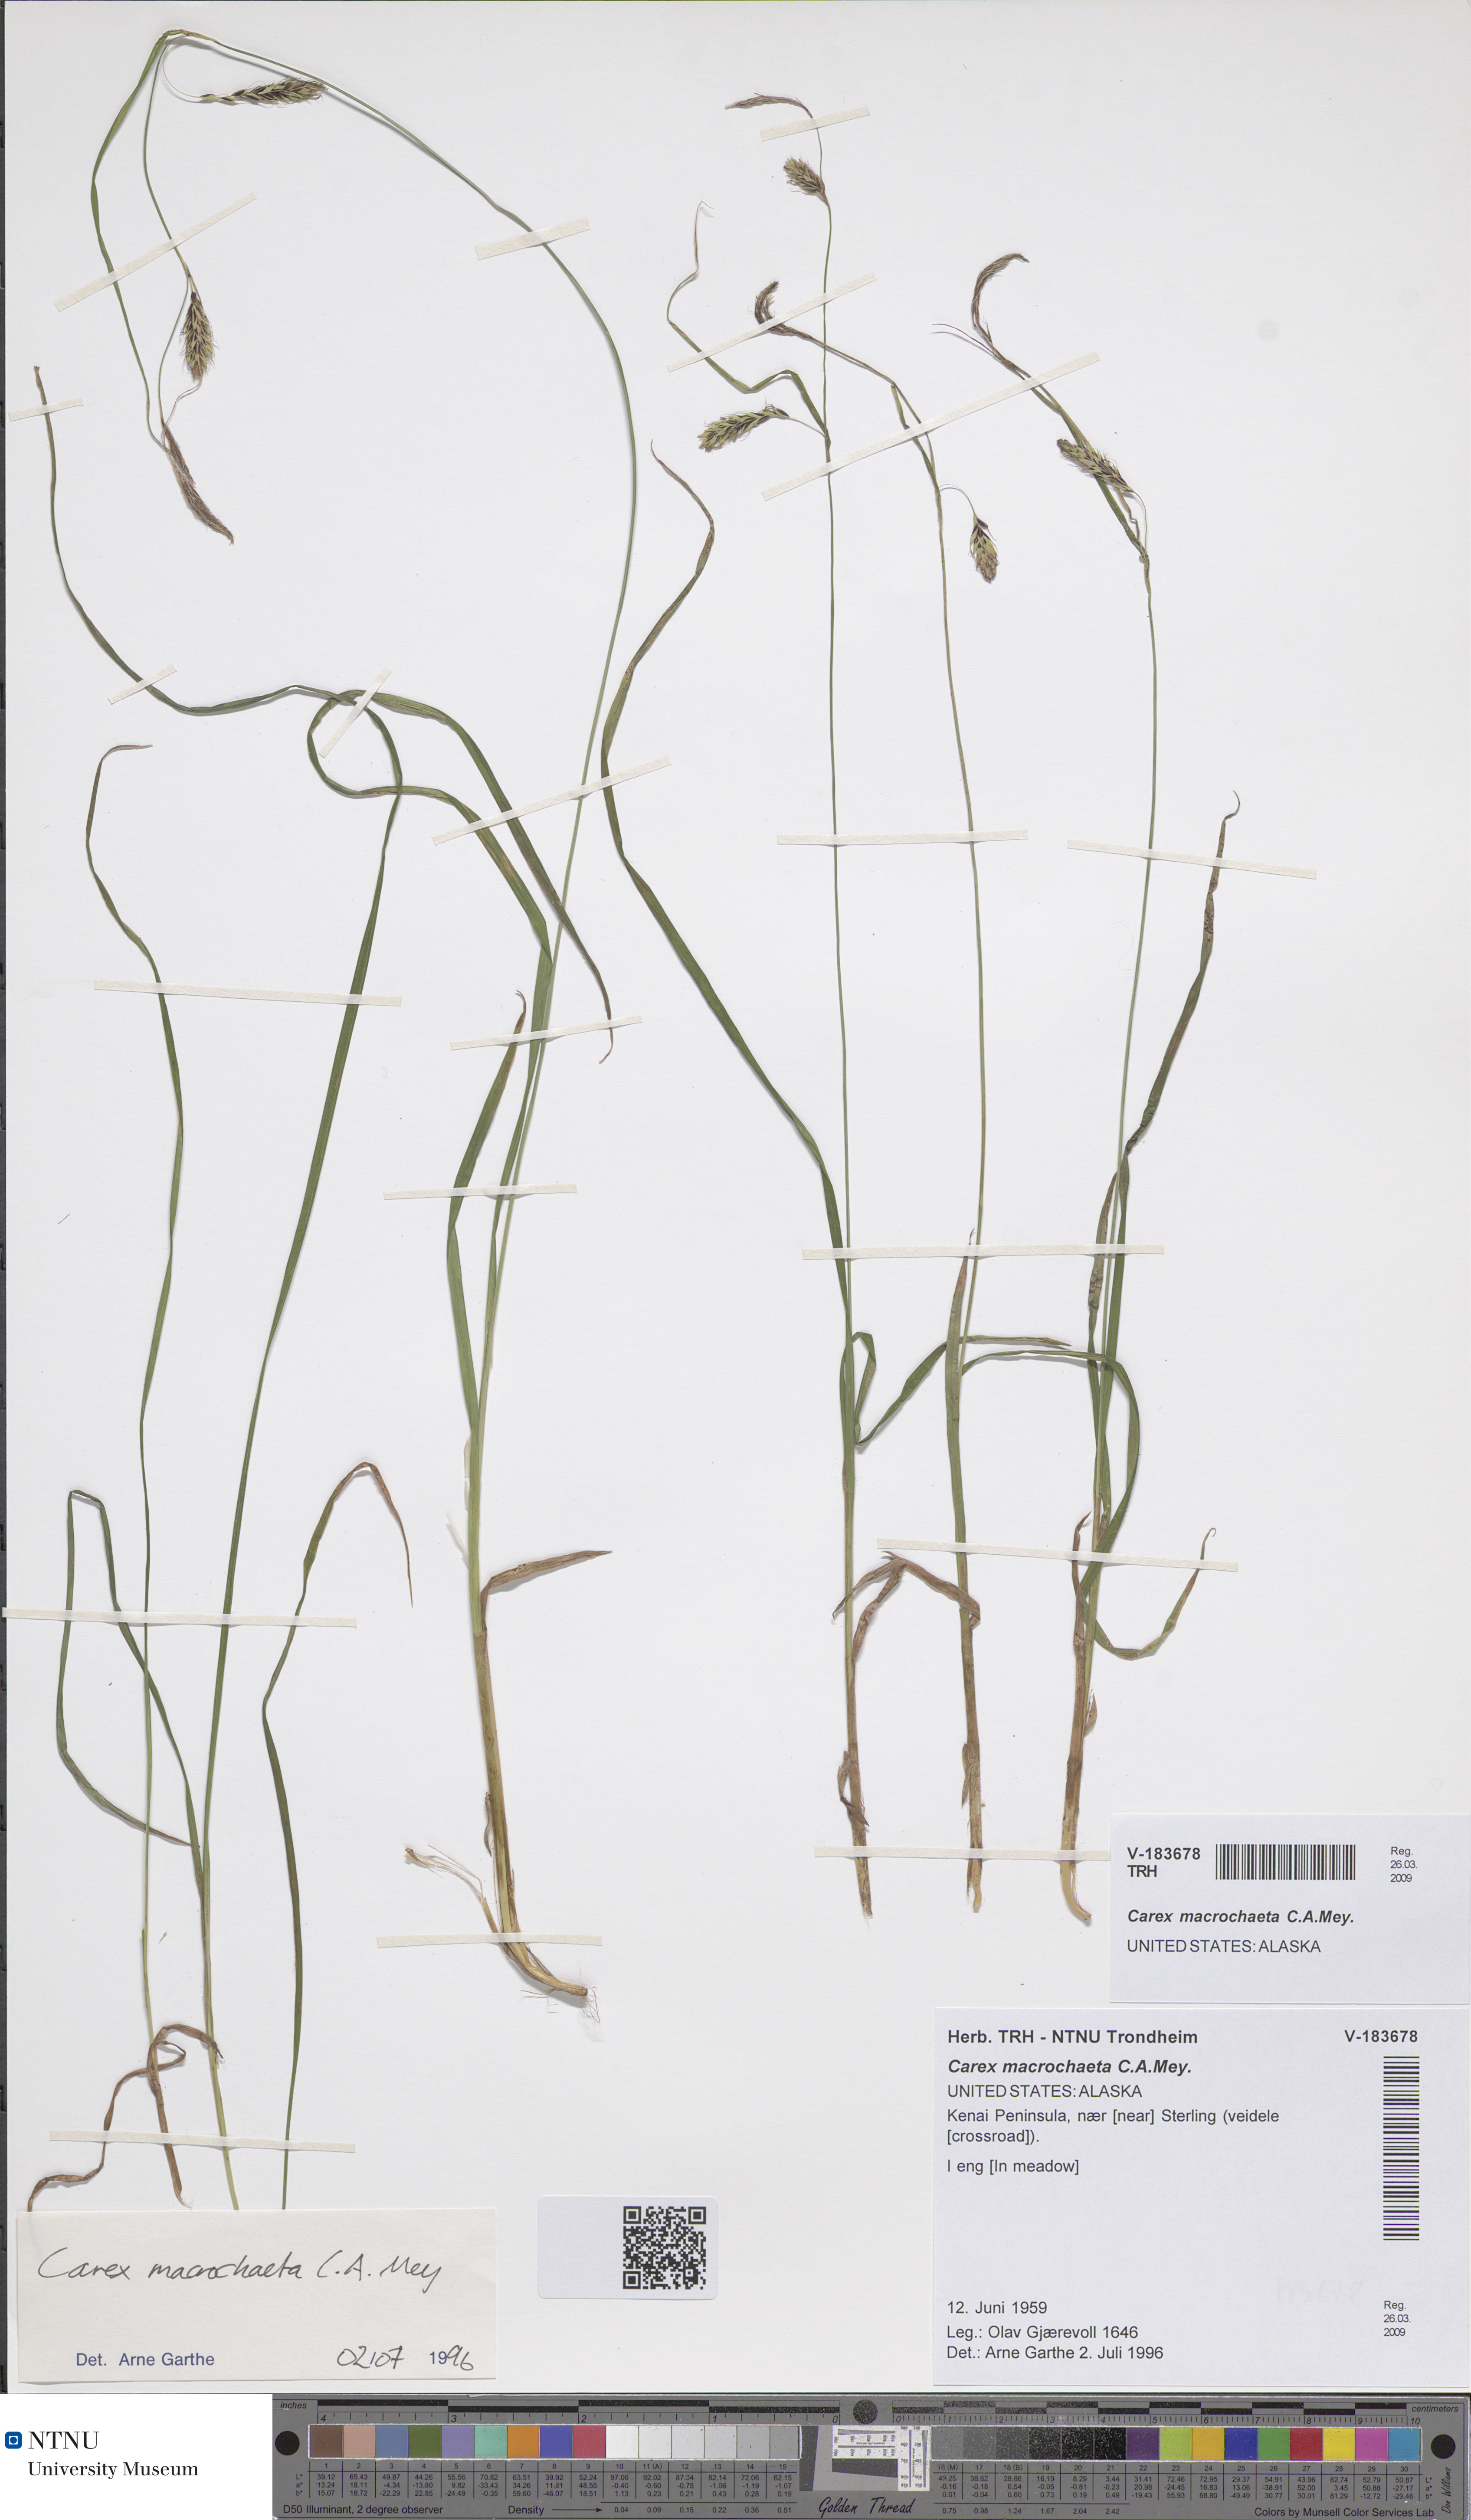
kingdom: Plantae
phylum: Tracheophyta
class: Liliopsida
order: Poales
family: Cyperaceae
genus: Carex
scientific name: Carex macrochaeta
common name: Alaska large awn sedge
